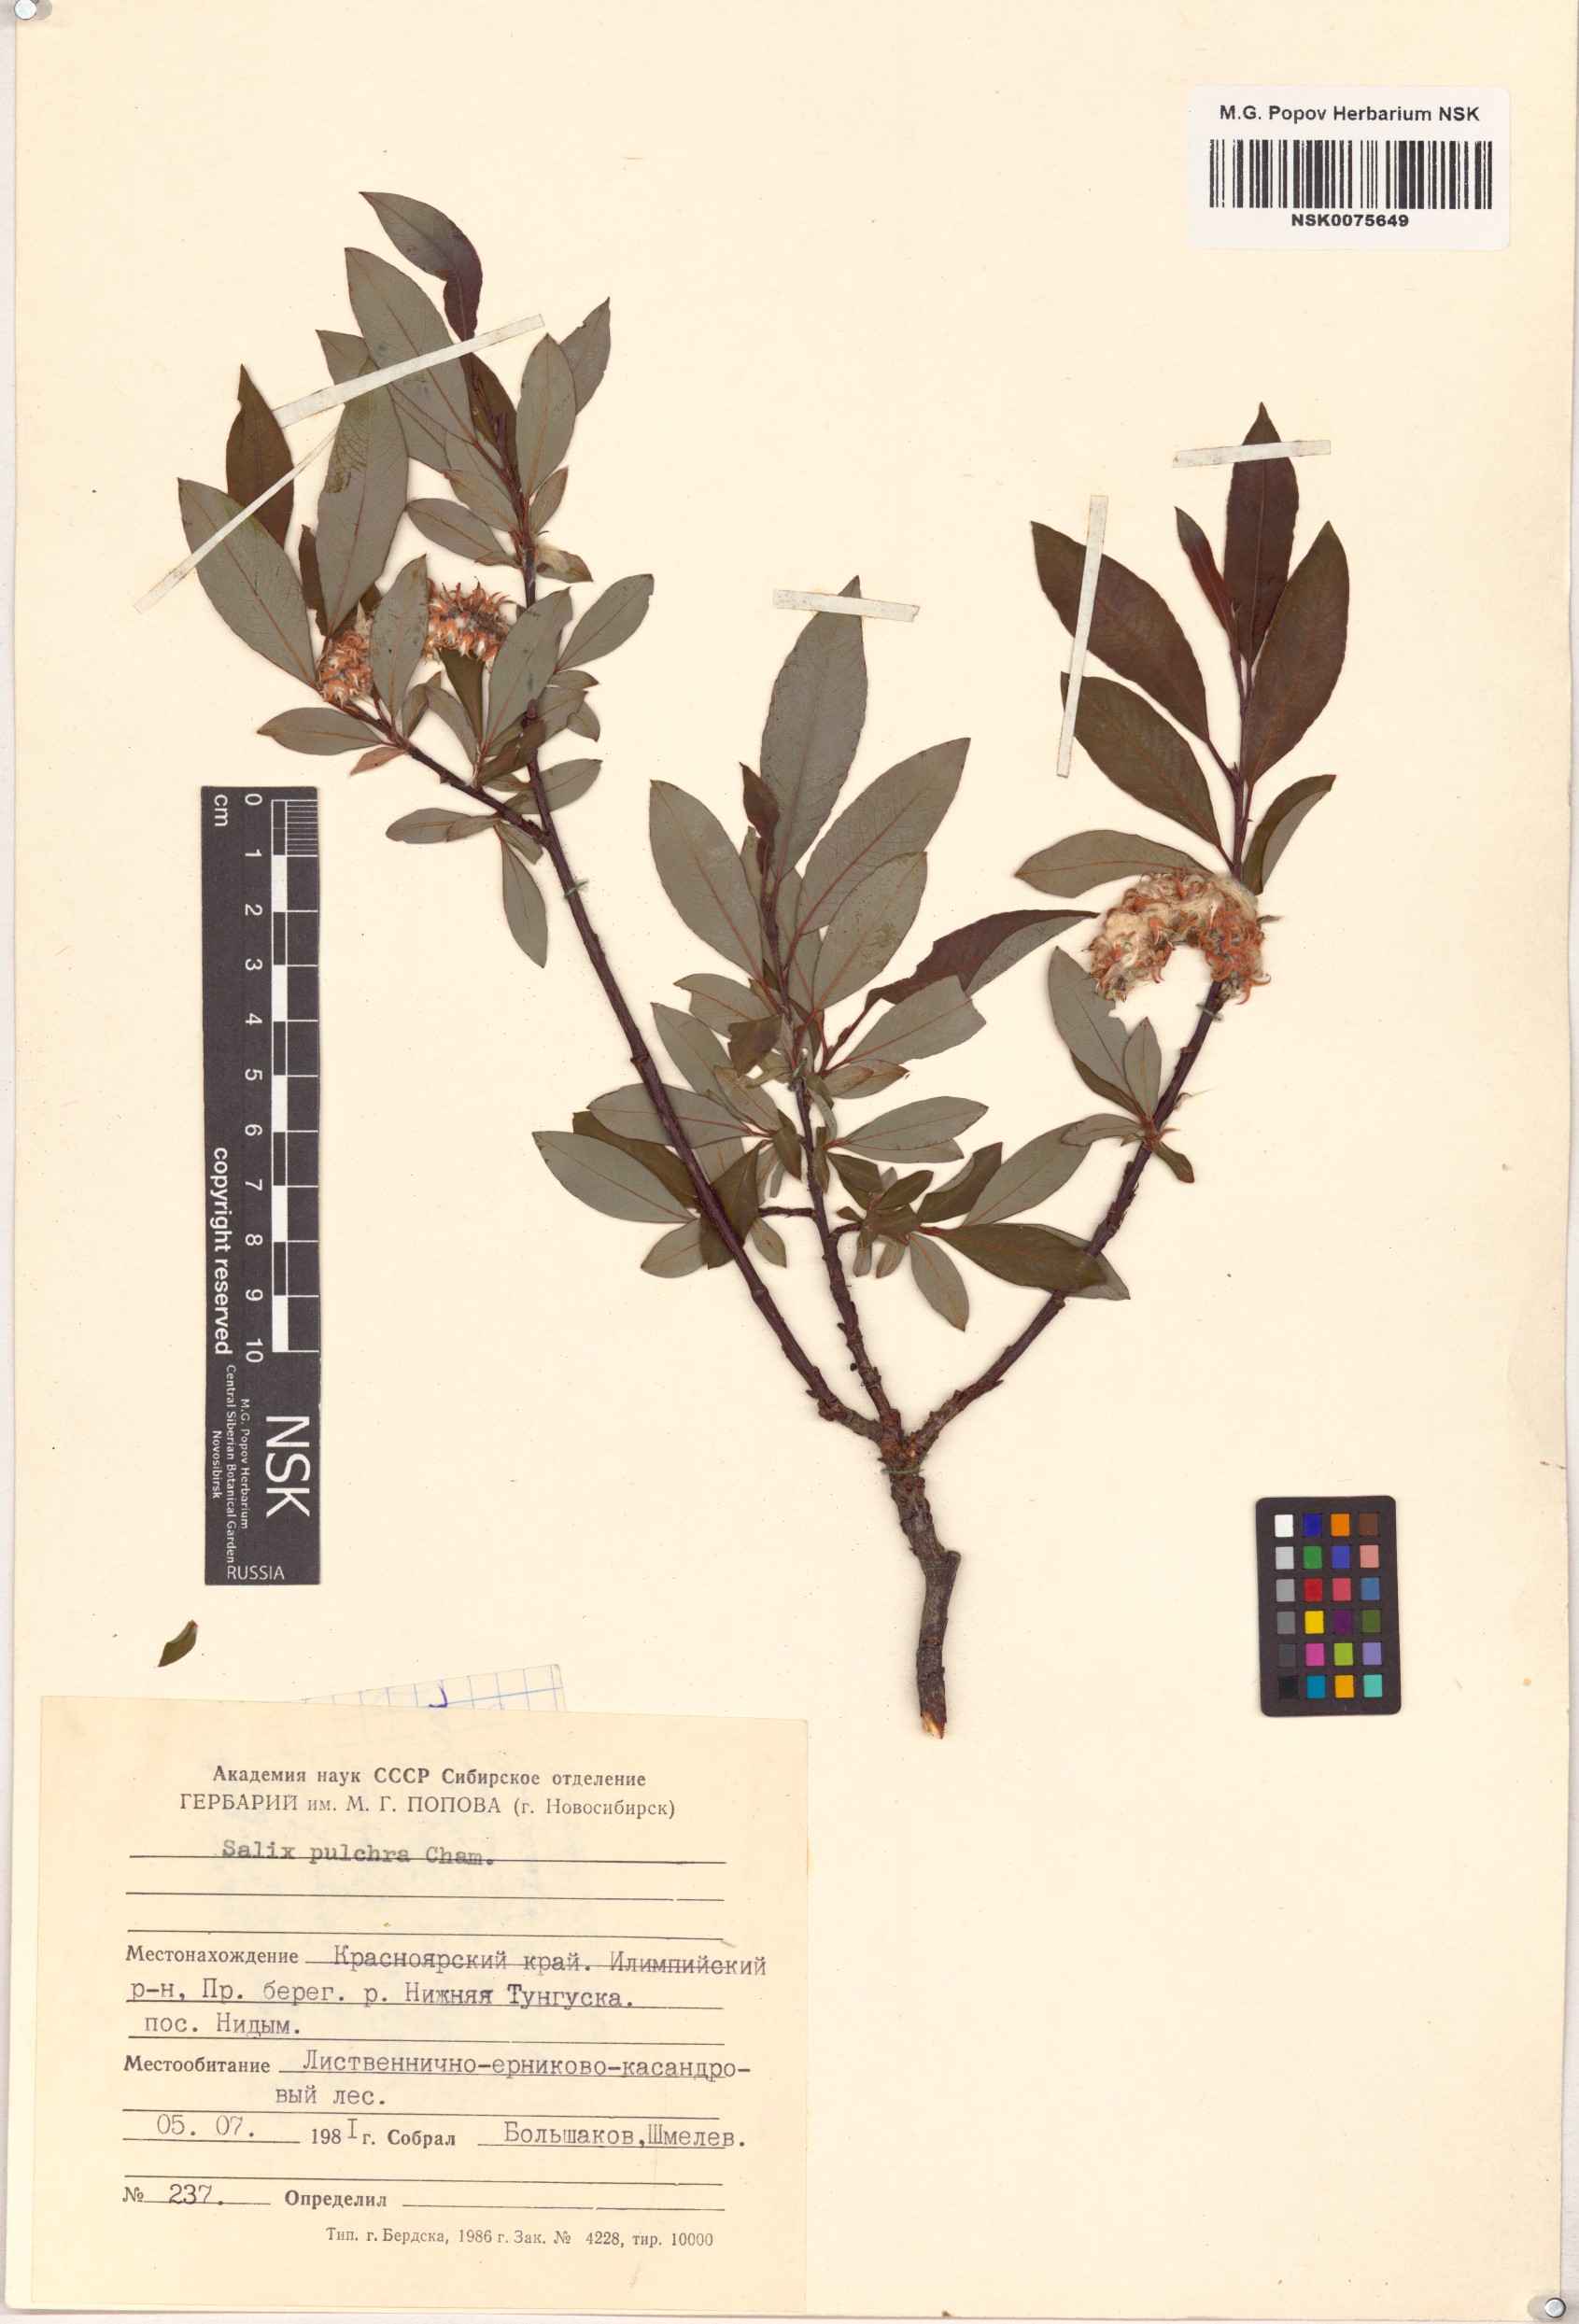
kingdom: Plantae
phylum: Tracheophyta
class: Magnoliopsida
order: Malpighiales
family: Salicaceae
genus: Salix
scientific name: Salix pulchra
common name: Diamond-leaved willow
